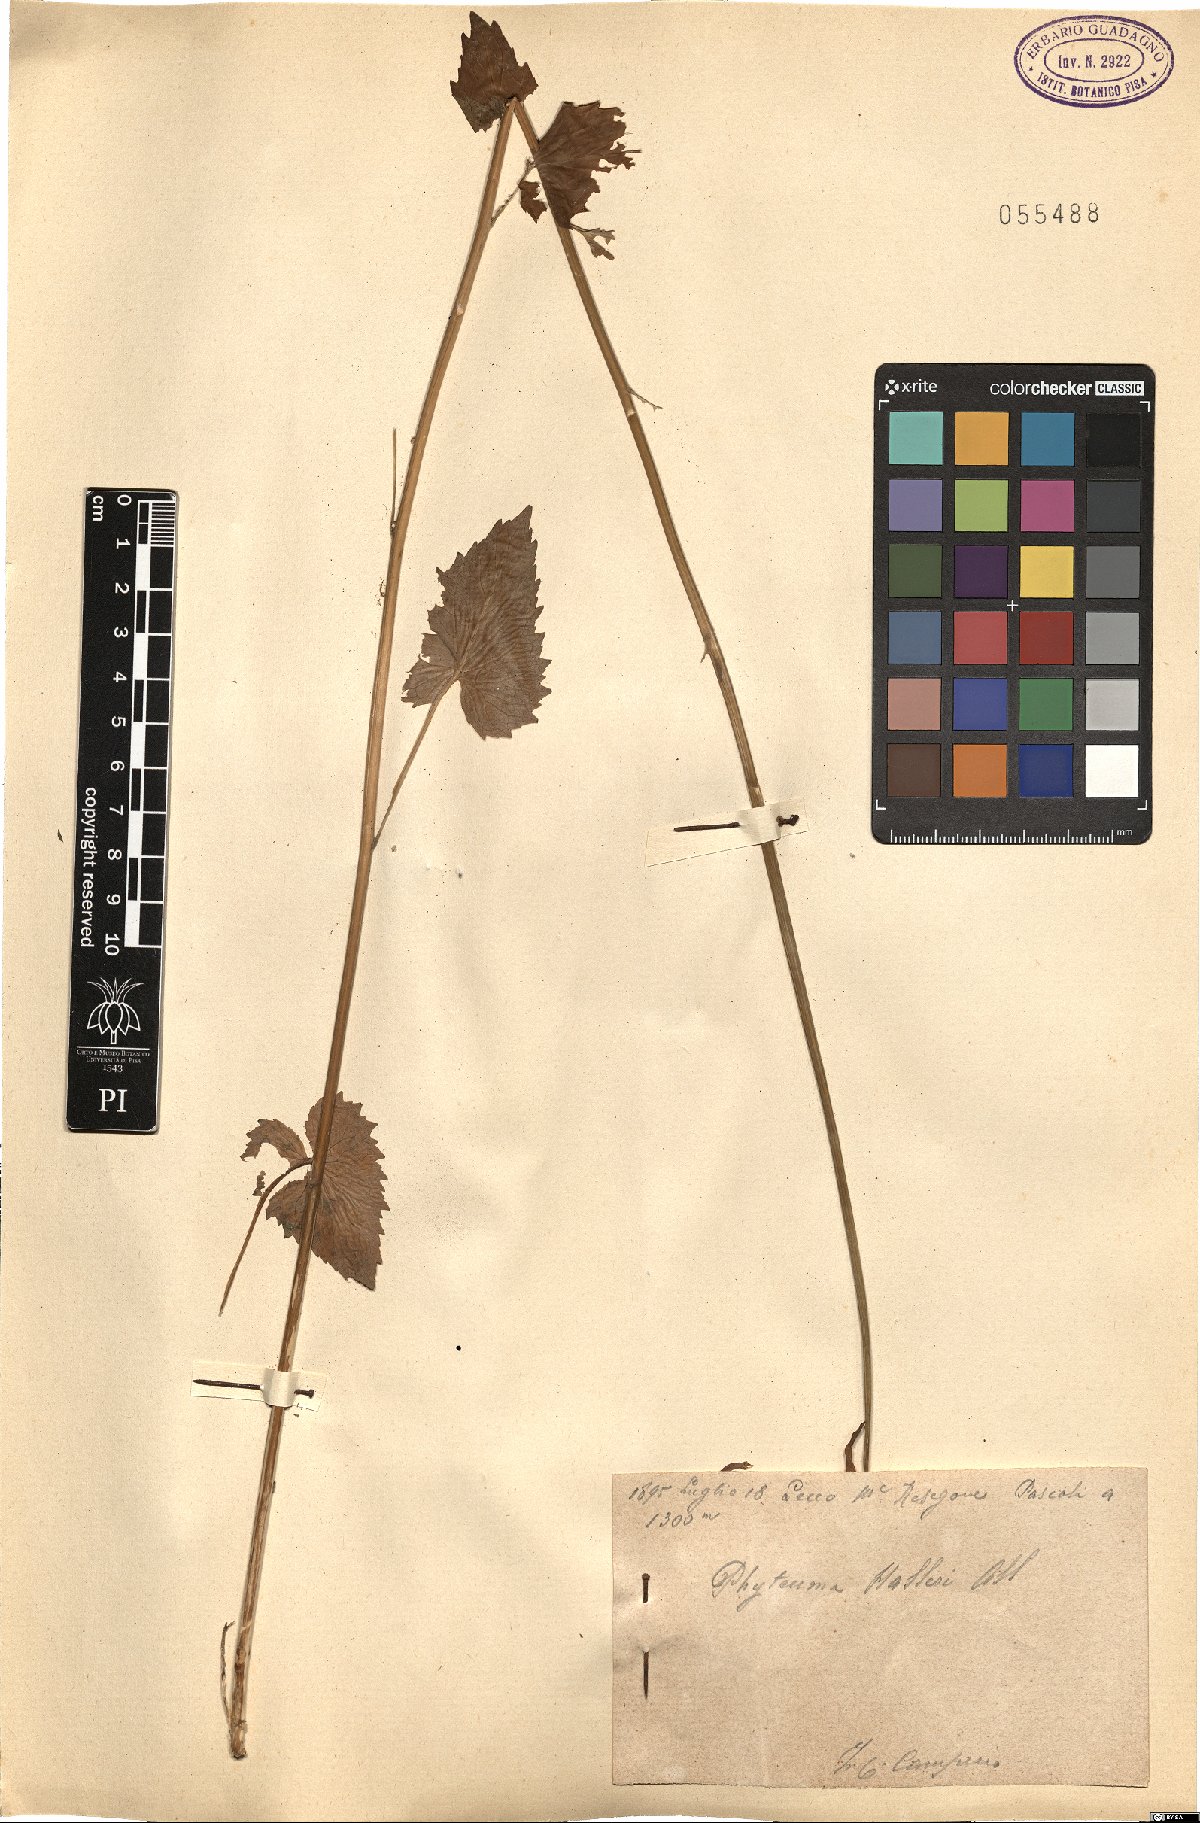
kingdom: Plantae
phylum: Tracheophyta
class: Magnoliopsida
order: Asterales
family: Campanulaceae
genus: Phyteuma
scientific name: Phyteuma ovatum
